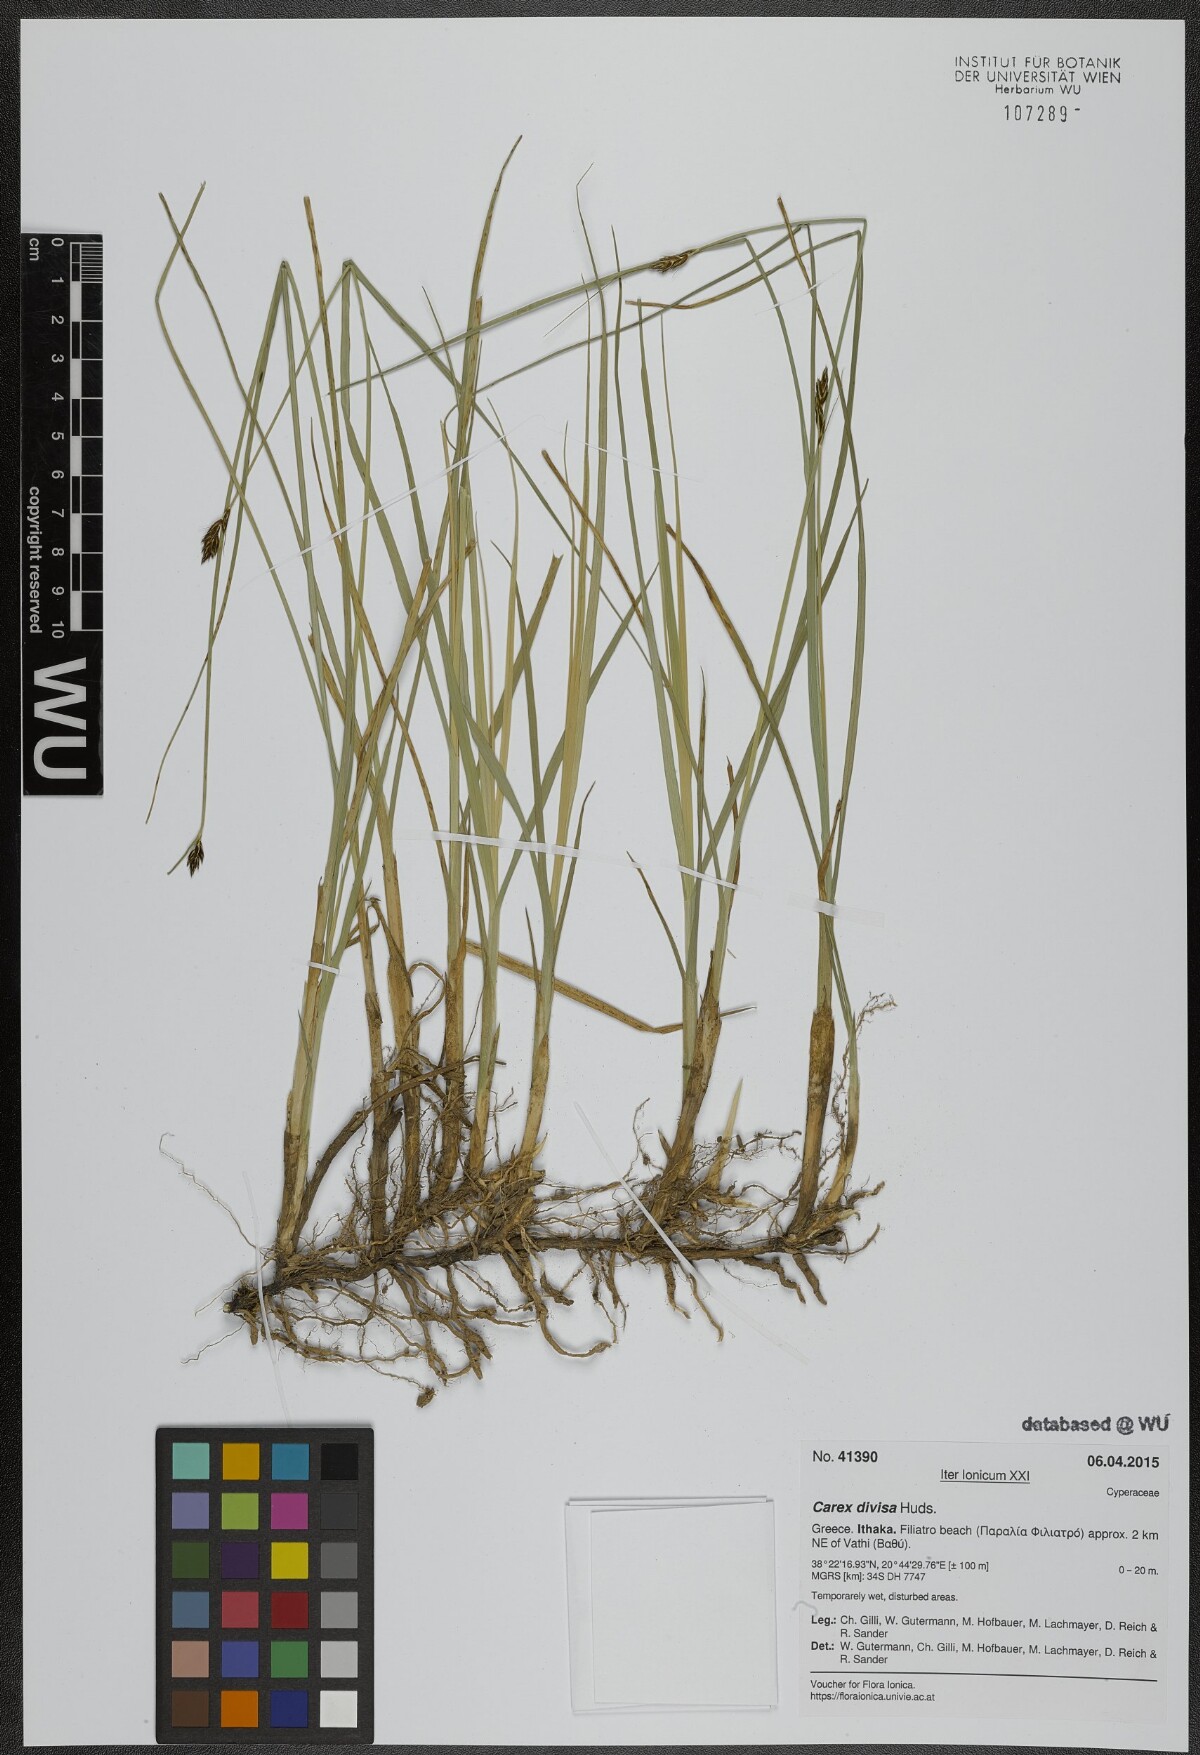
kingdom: Plantae
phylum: Tracheophyta
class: Liliopsida
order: Poales
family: Cyperaceae
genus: Carex
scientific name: Carex divisa
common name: Divided sedge
